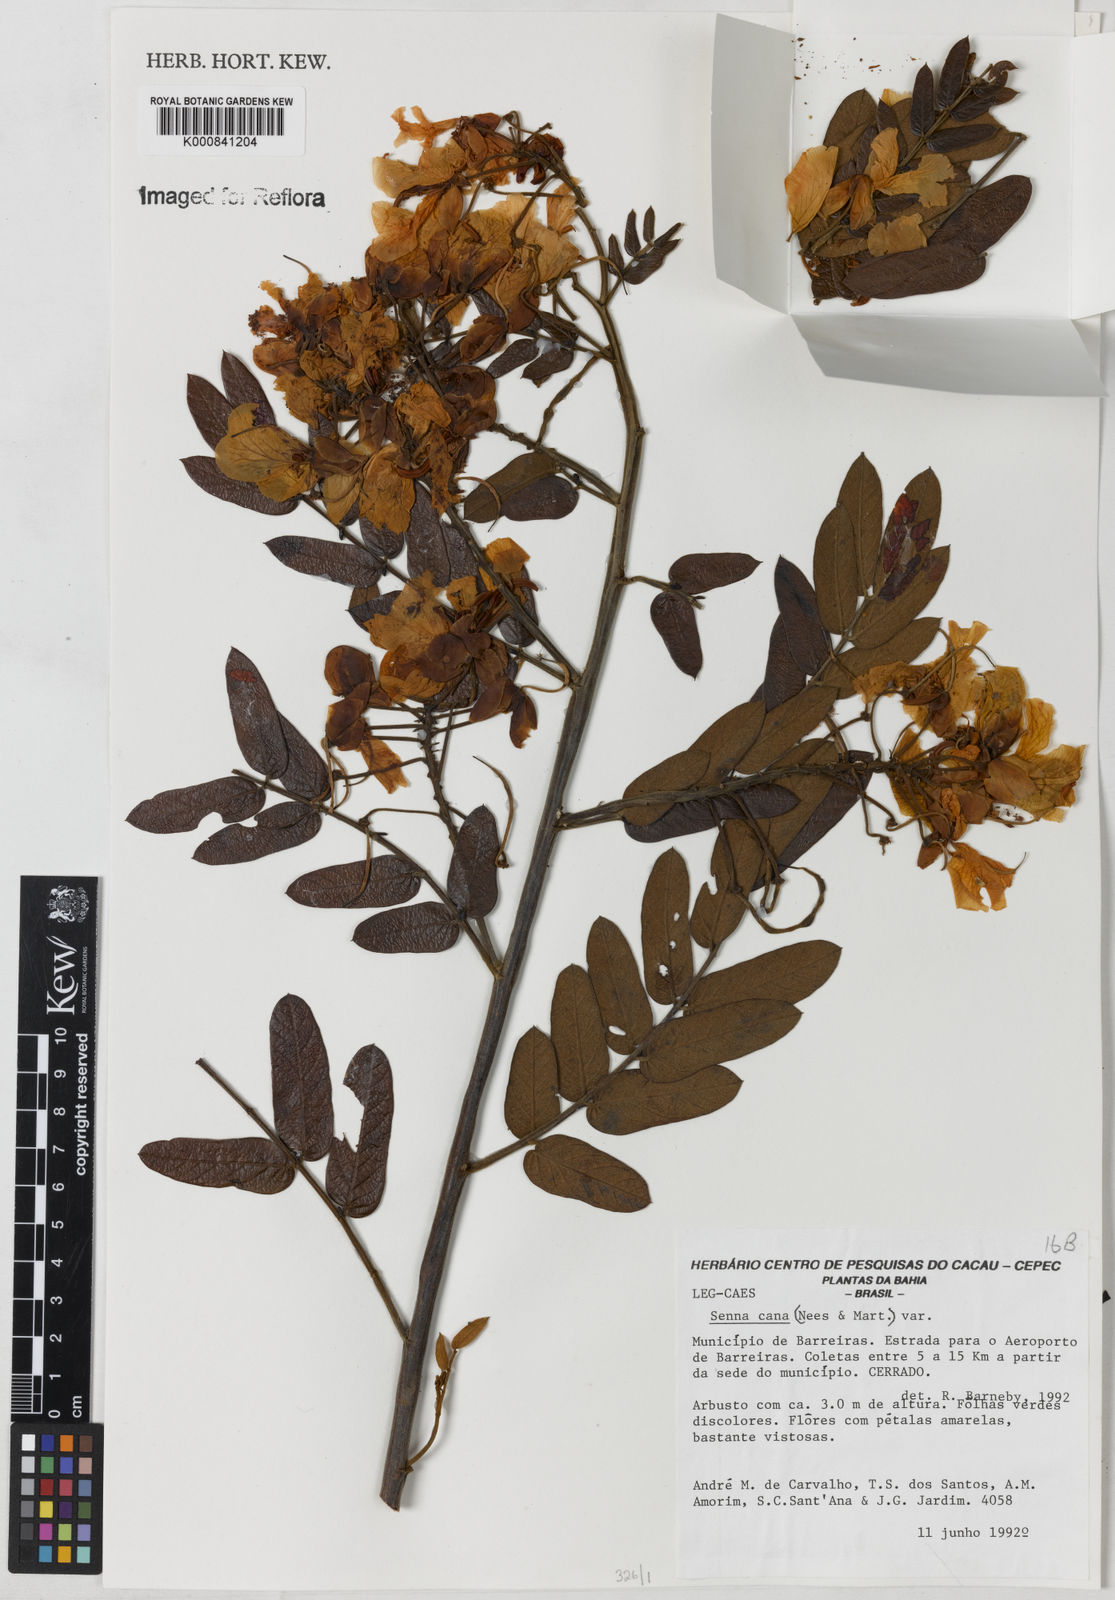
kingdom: Plantae
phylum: Tracheophyta
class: Magnoliopsida
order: Fabales
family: Fabaceae
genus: Senna
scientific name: Senna velutina
